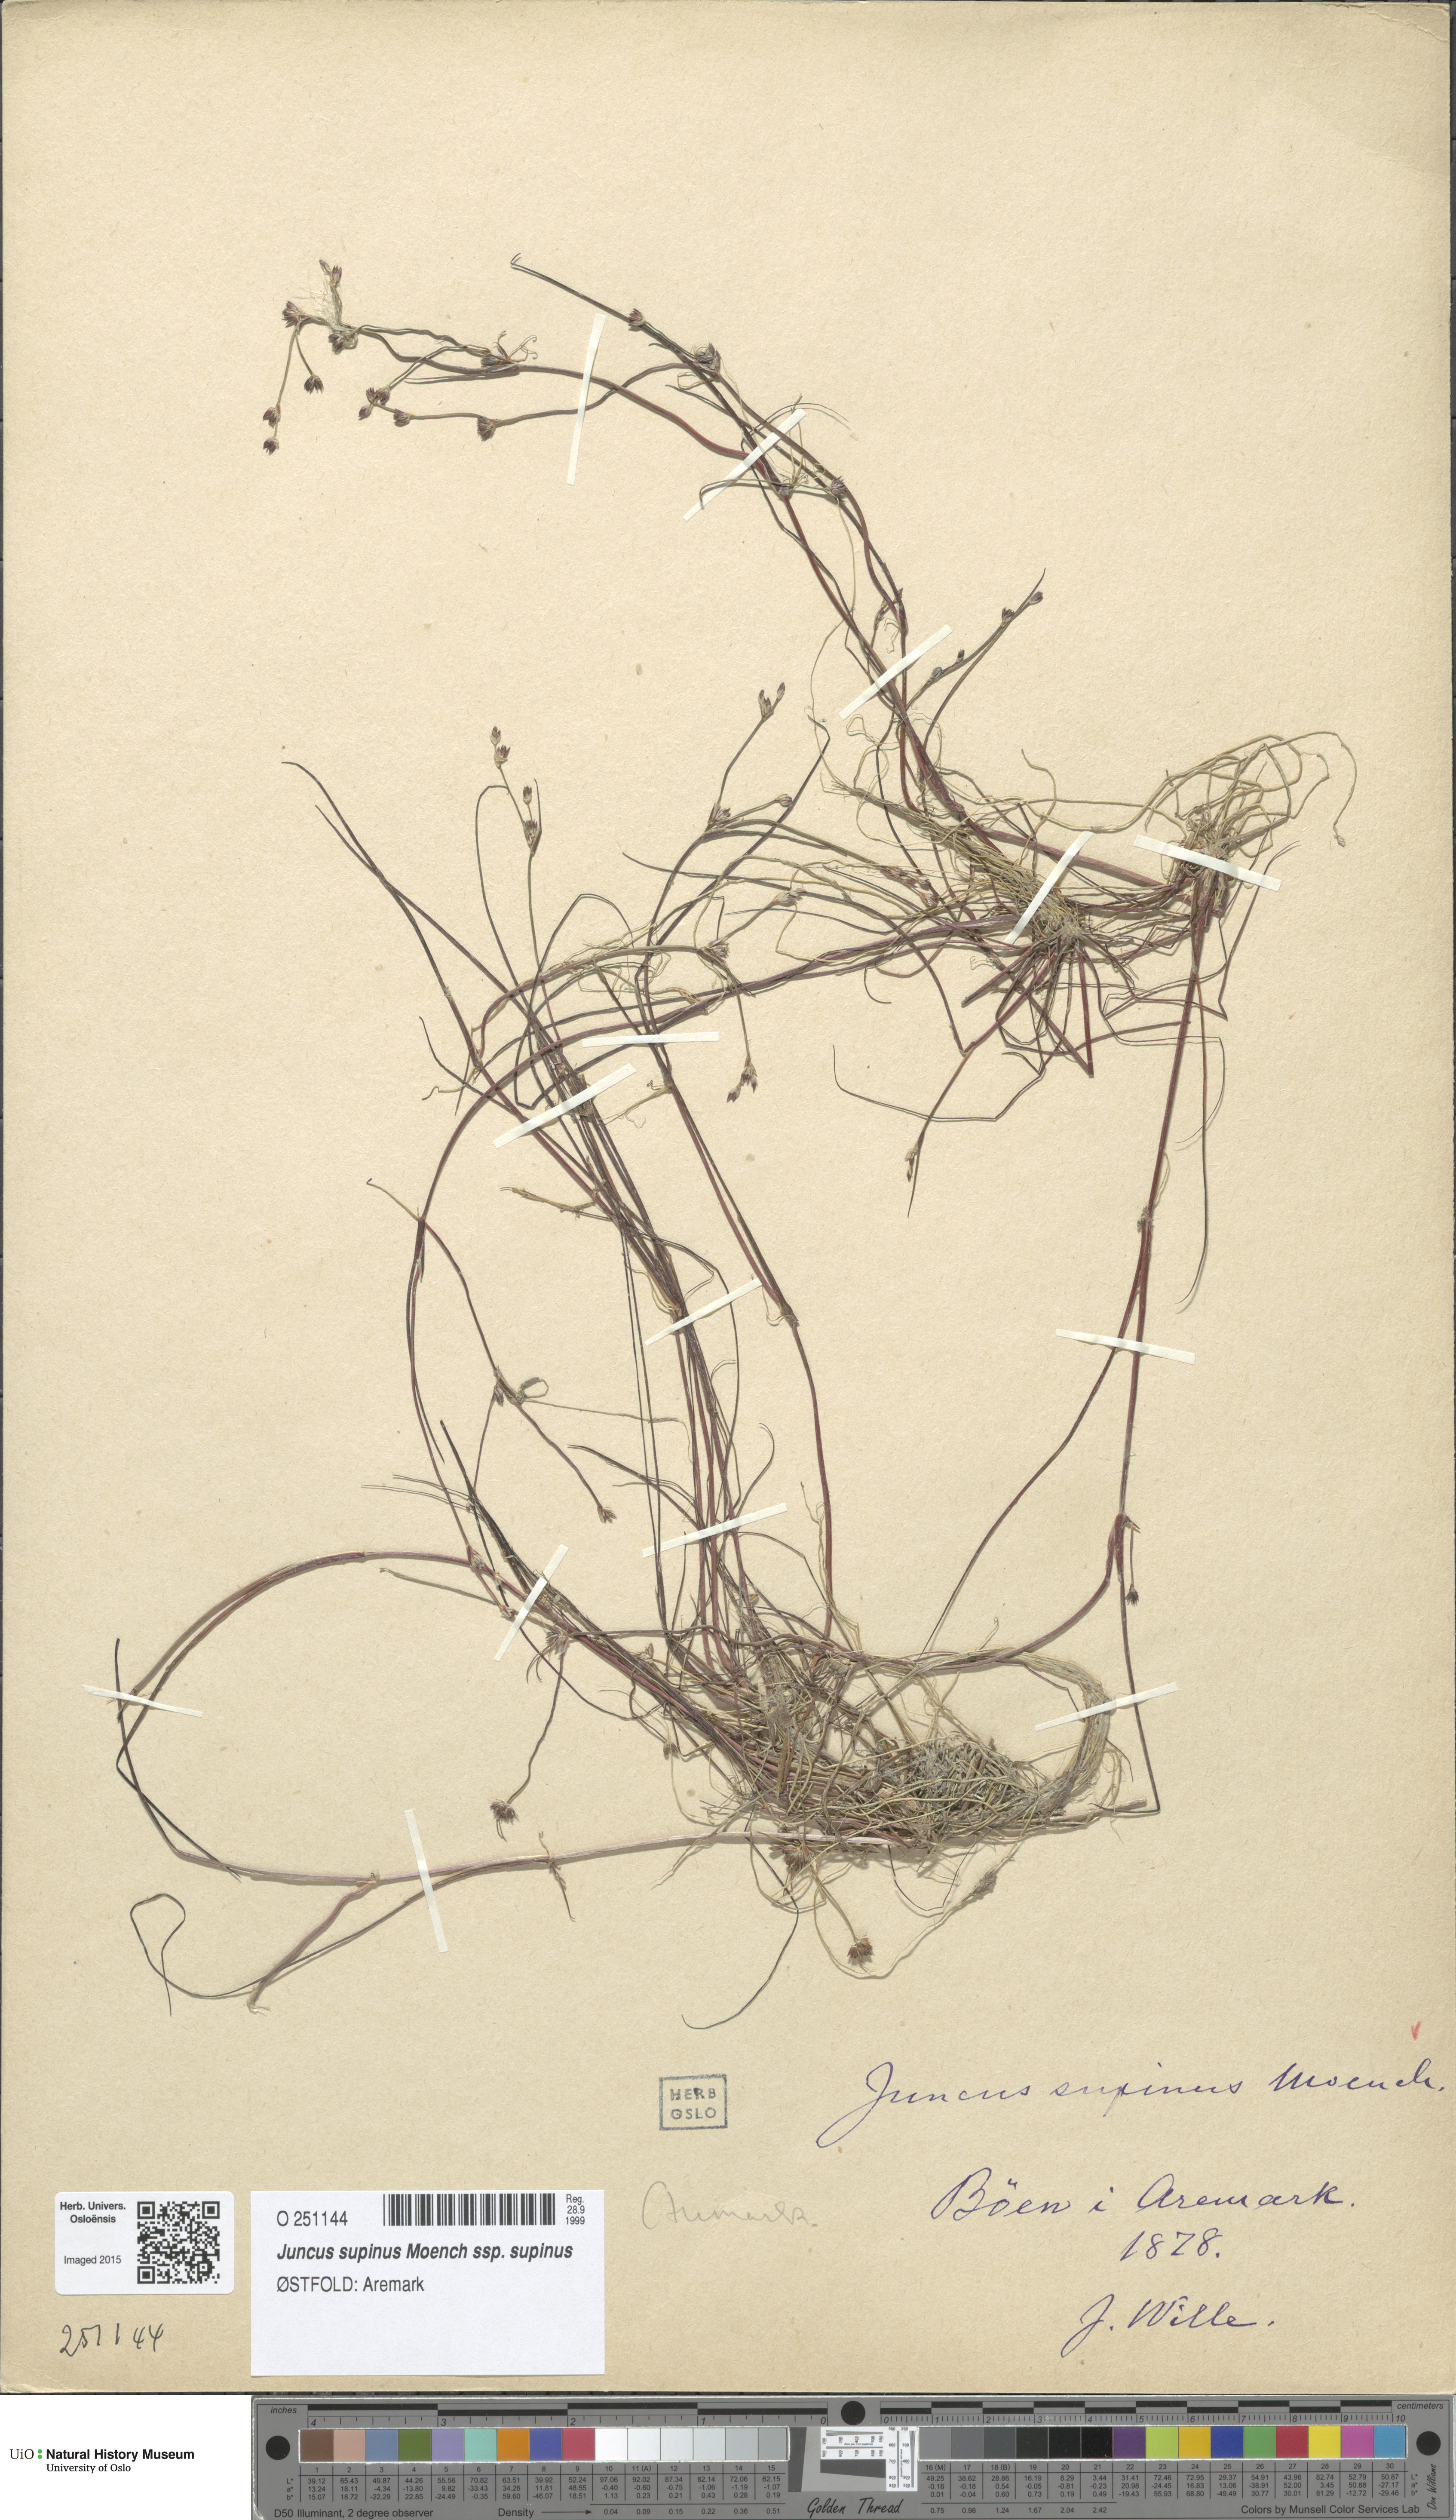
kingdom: Plantae
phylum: Tracheophyta
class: Liliopsida
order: Poales
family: Juncaceae
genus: Juncus
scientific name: Juncus bulbosus
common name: Bulbous rush
